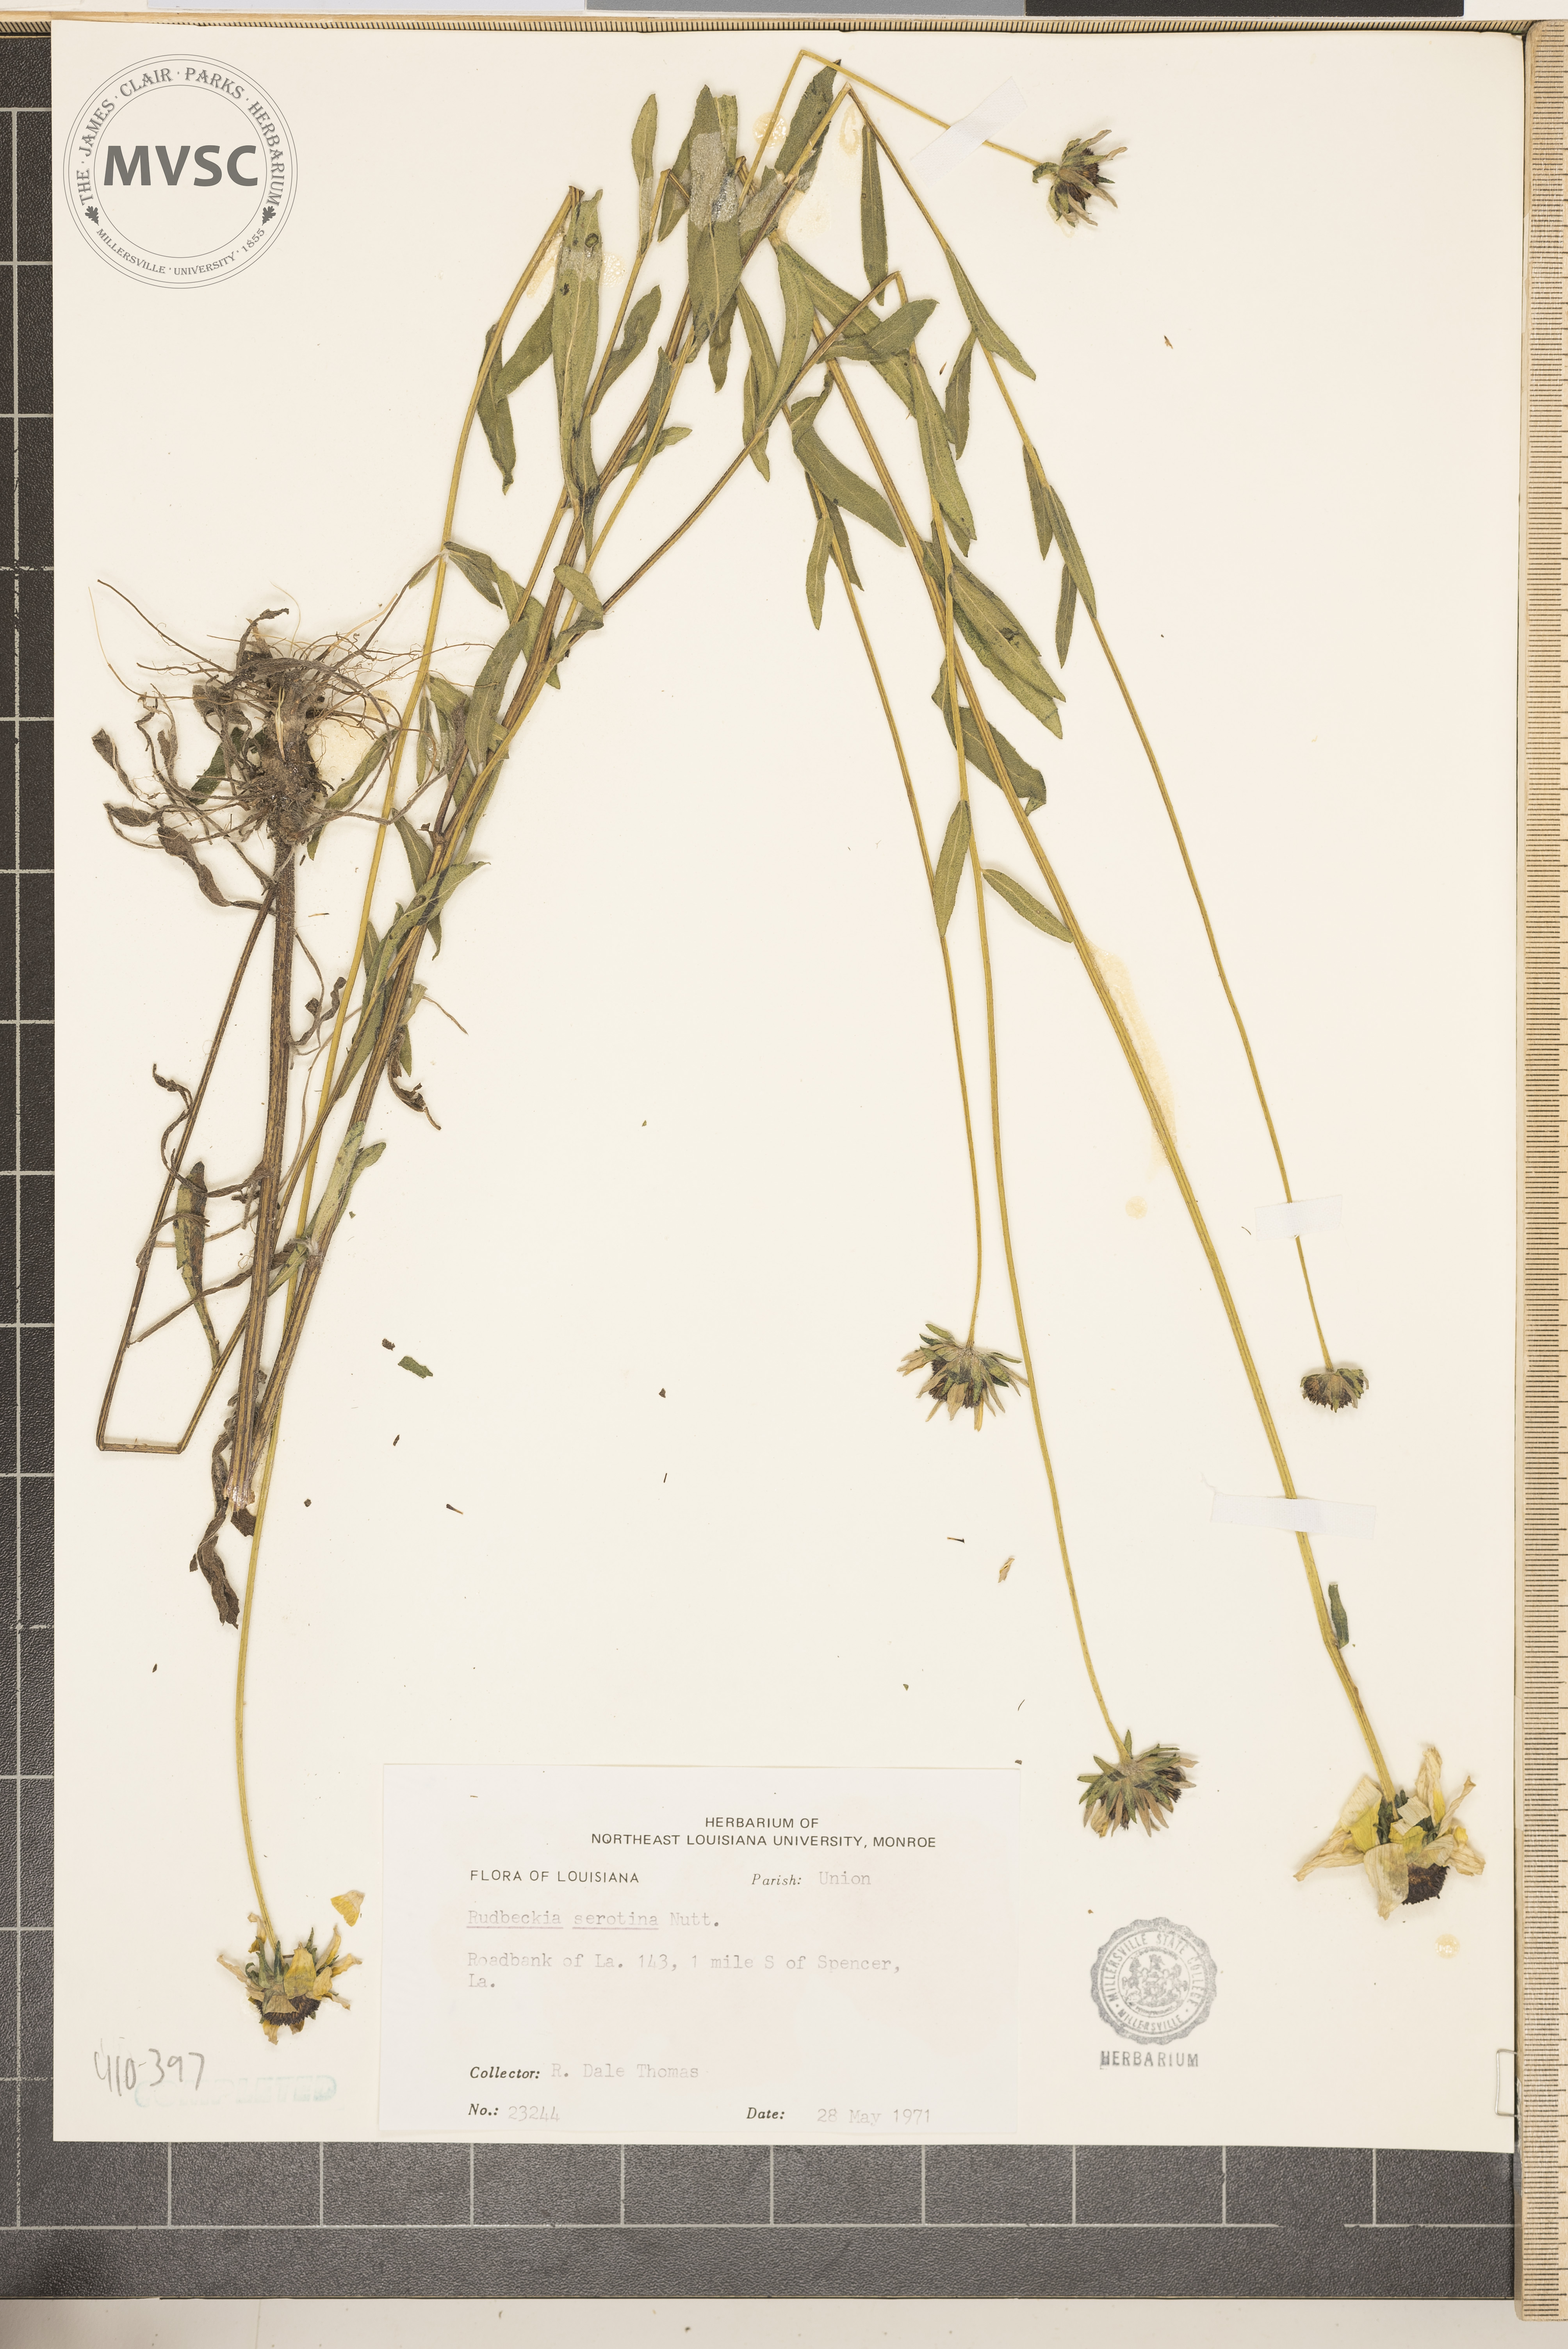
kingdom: Plantae
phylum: Tracheophyta
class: Magnoliopsida
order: Asterales
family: Asteraceae
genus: Rudbeckia
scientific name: Rudbeckia hirta
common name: Black-eyed-susan
